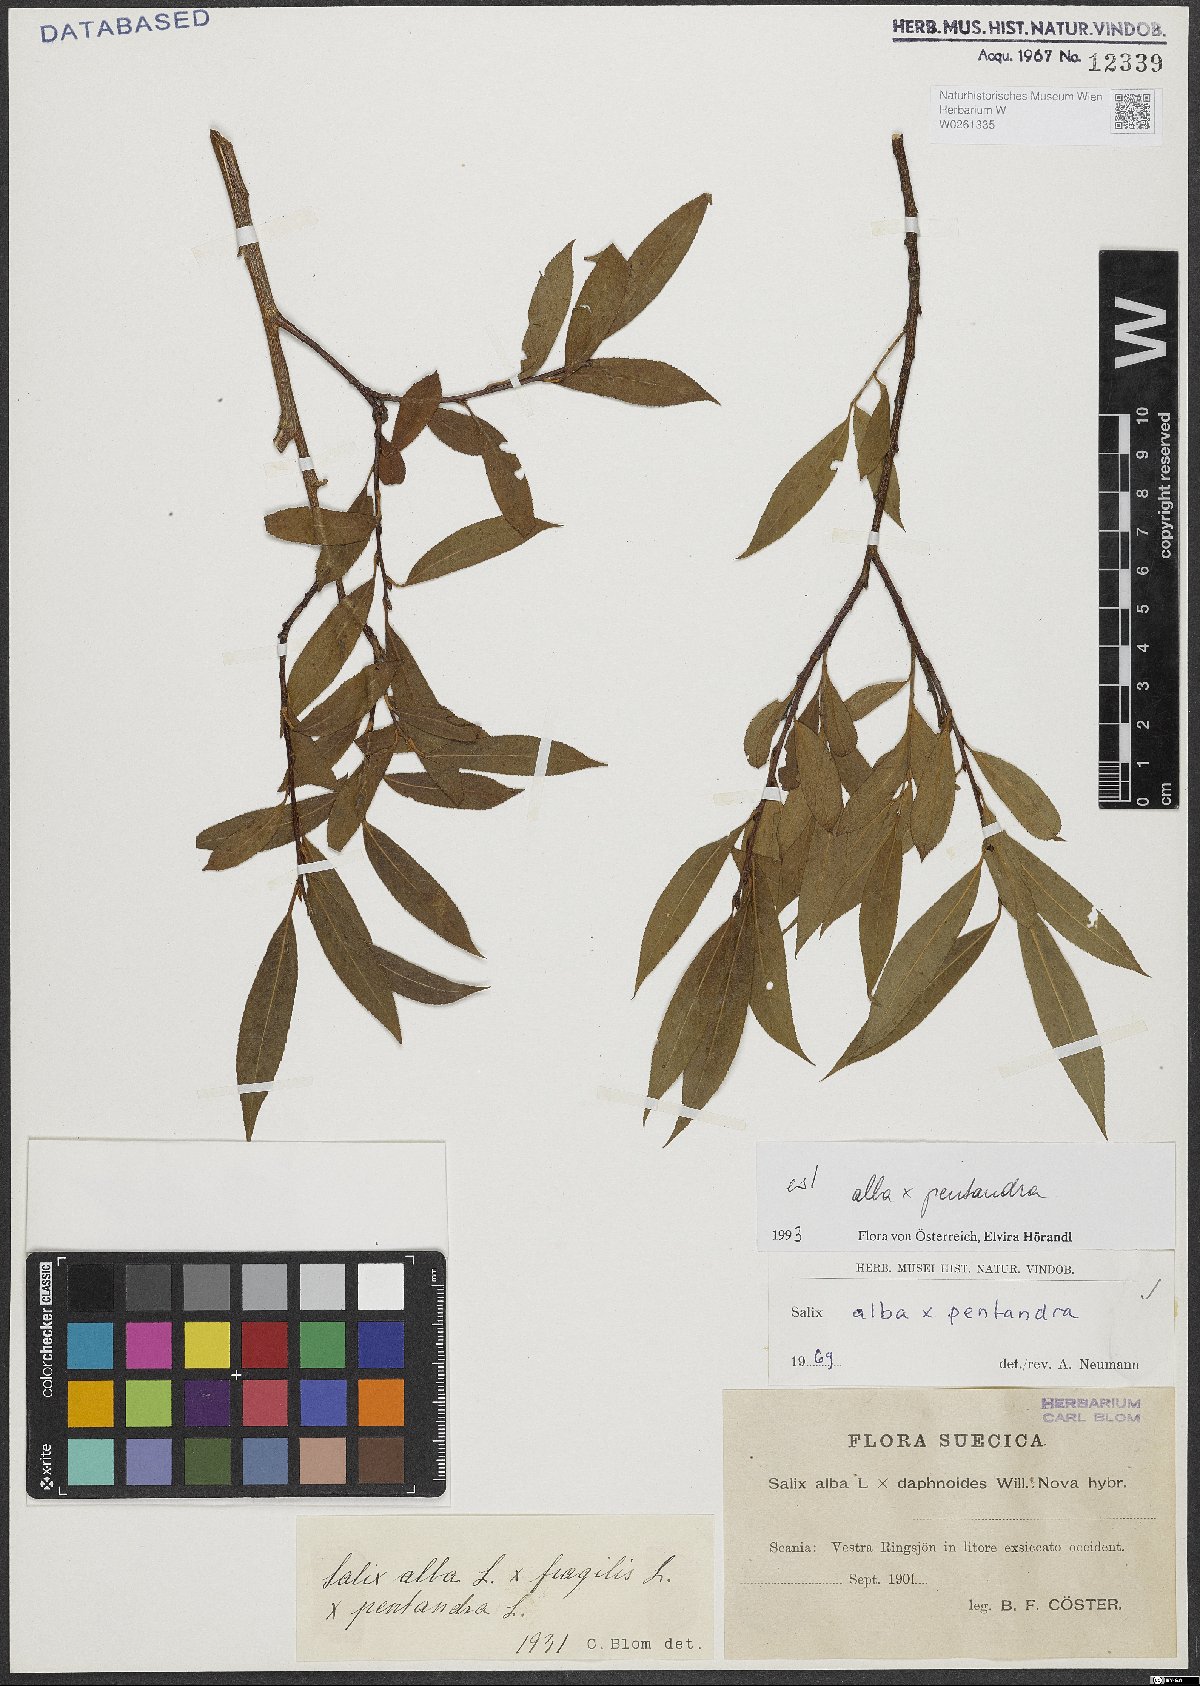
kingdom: Plantae
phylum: Tracheophyta
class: Magnoliopsida
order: Malpighiales
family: Salicaceae
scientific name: Salicaceae
